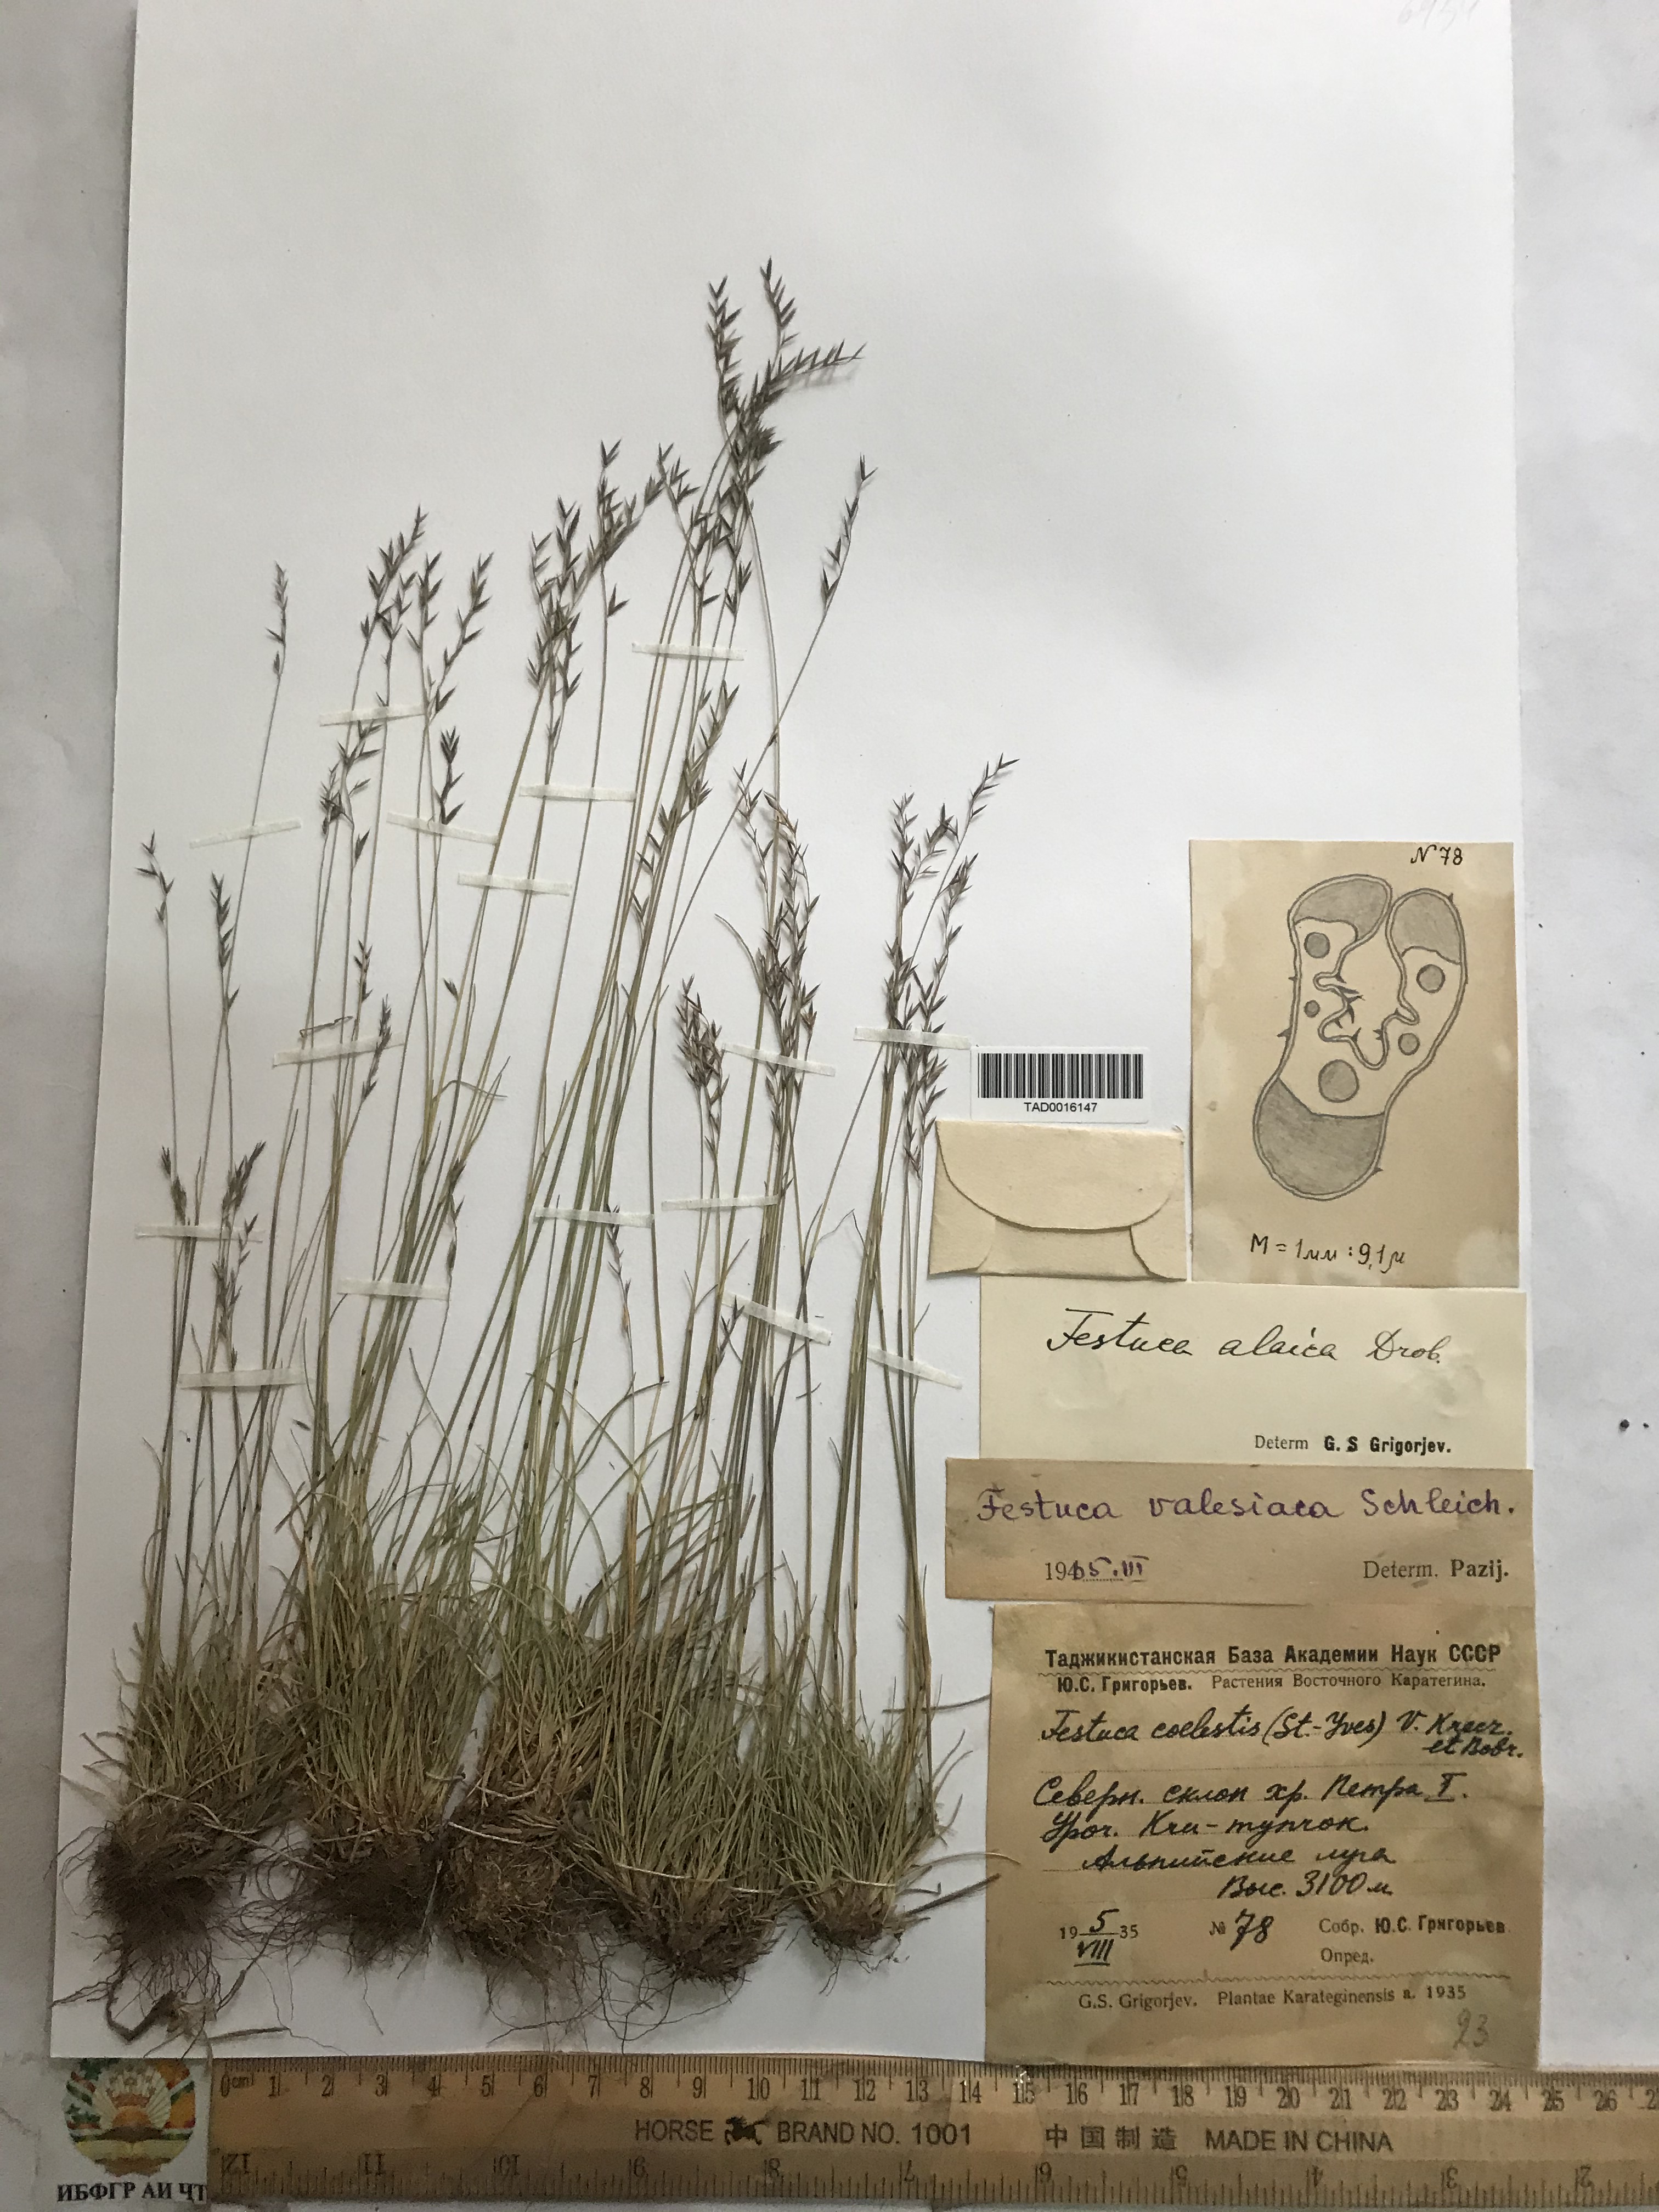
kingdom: Plantae
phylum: Tracheophyta
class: Liliopsida
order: Poales
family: Poaceae
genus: Festuca
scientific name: Festuca alaica
